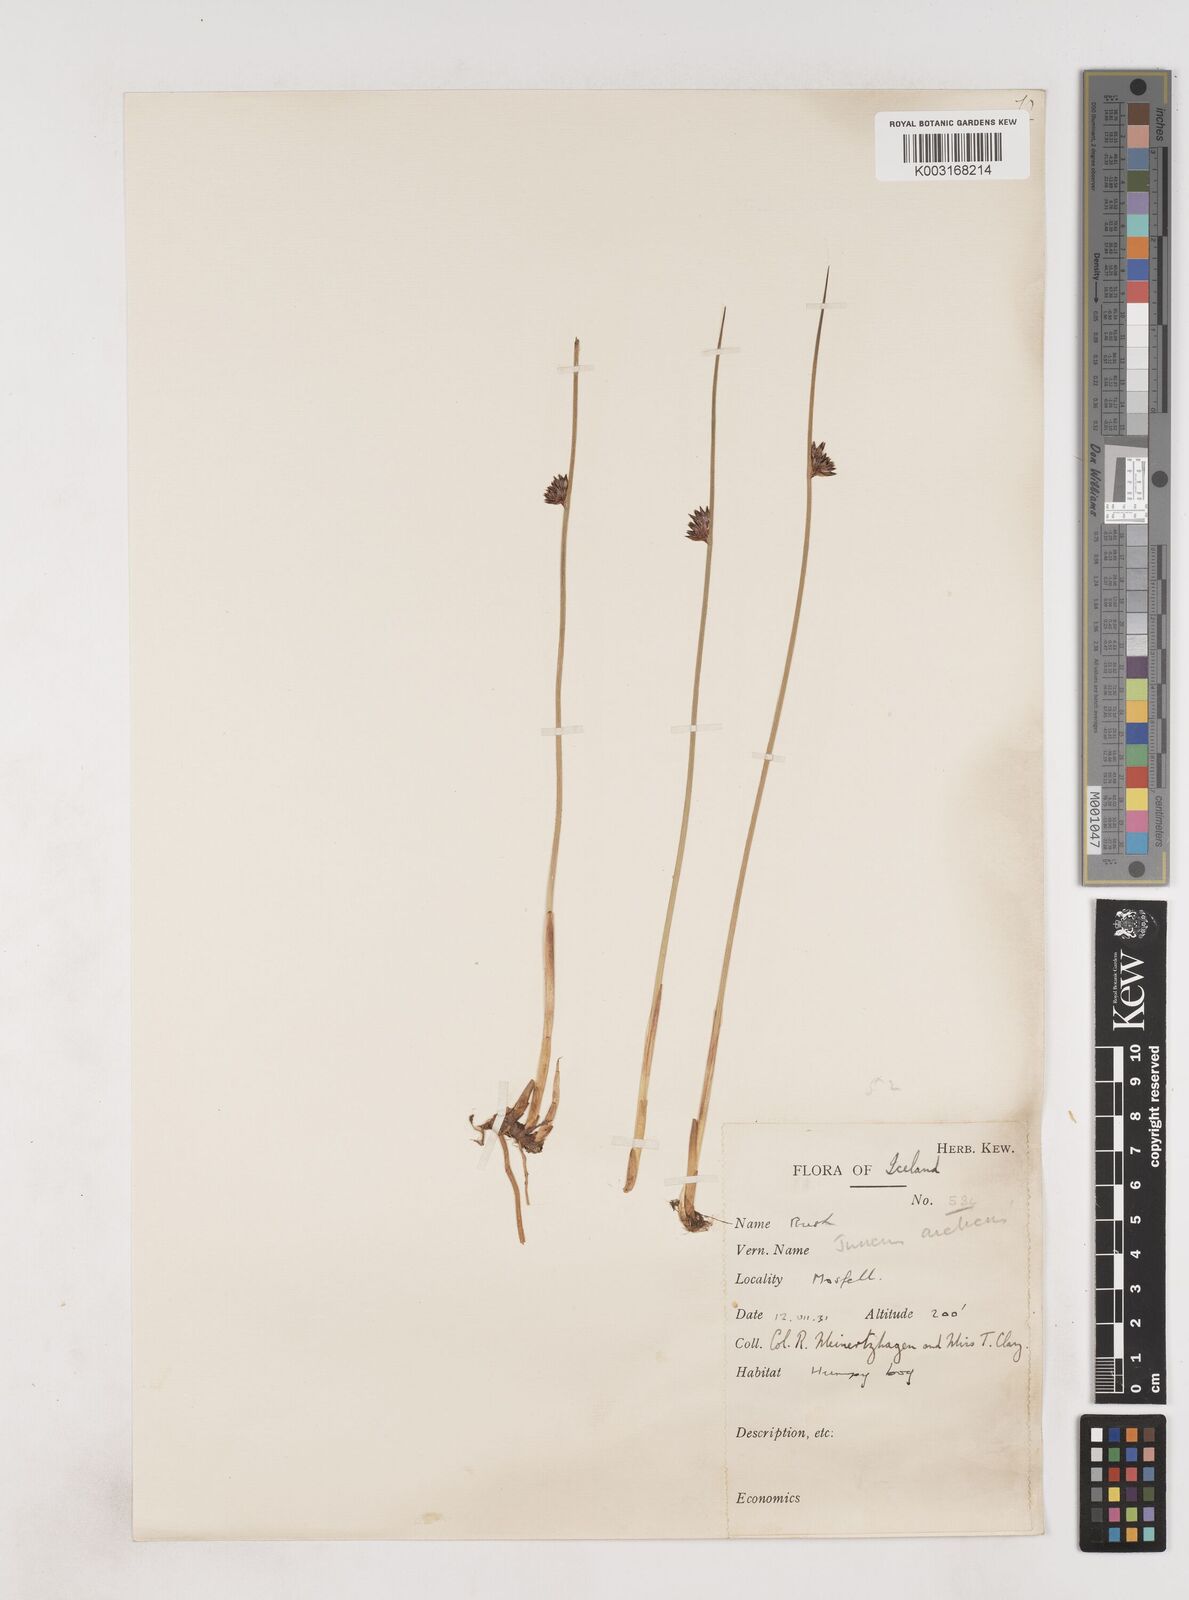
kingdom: Plantae
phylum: Tracheophyta
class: Liliopsida
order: Poales
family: Juncaceae
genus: Juncus
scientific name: Juncus arcticus
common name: Arctic rush
